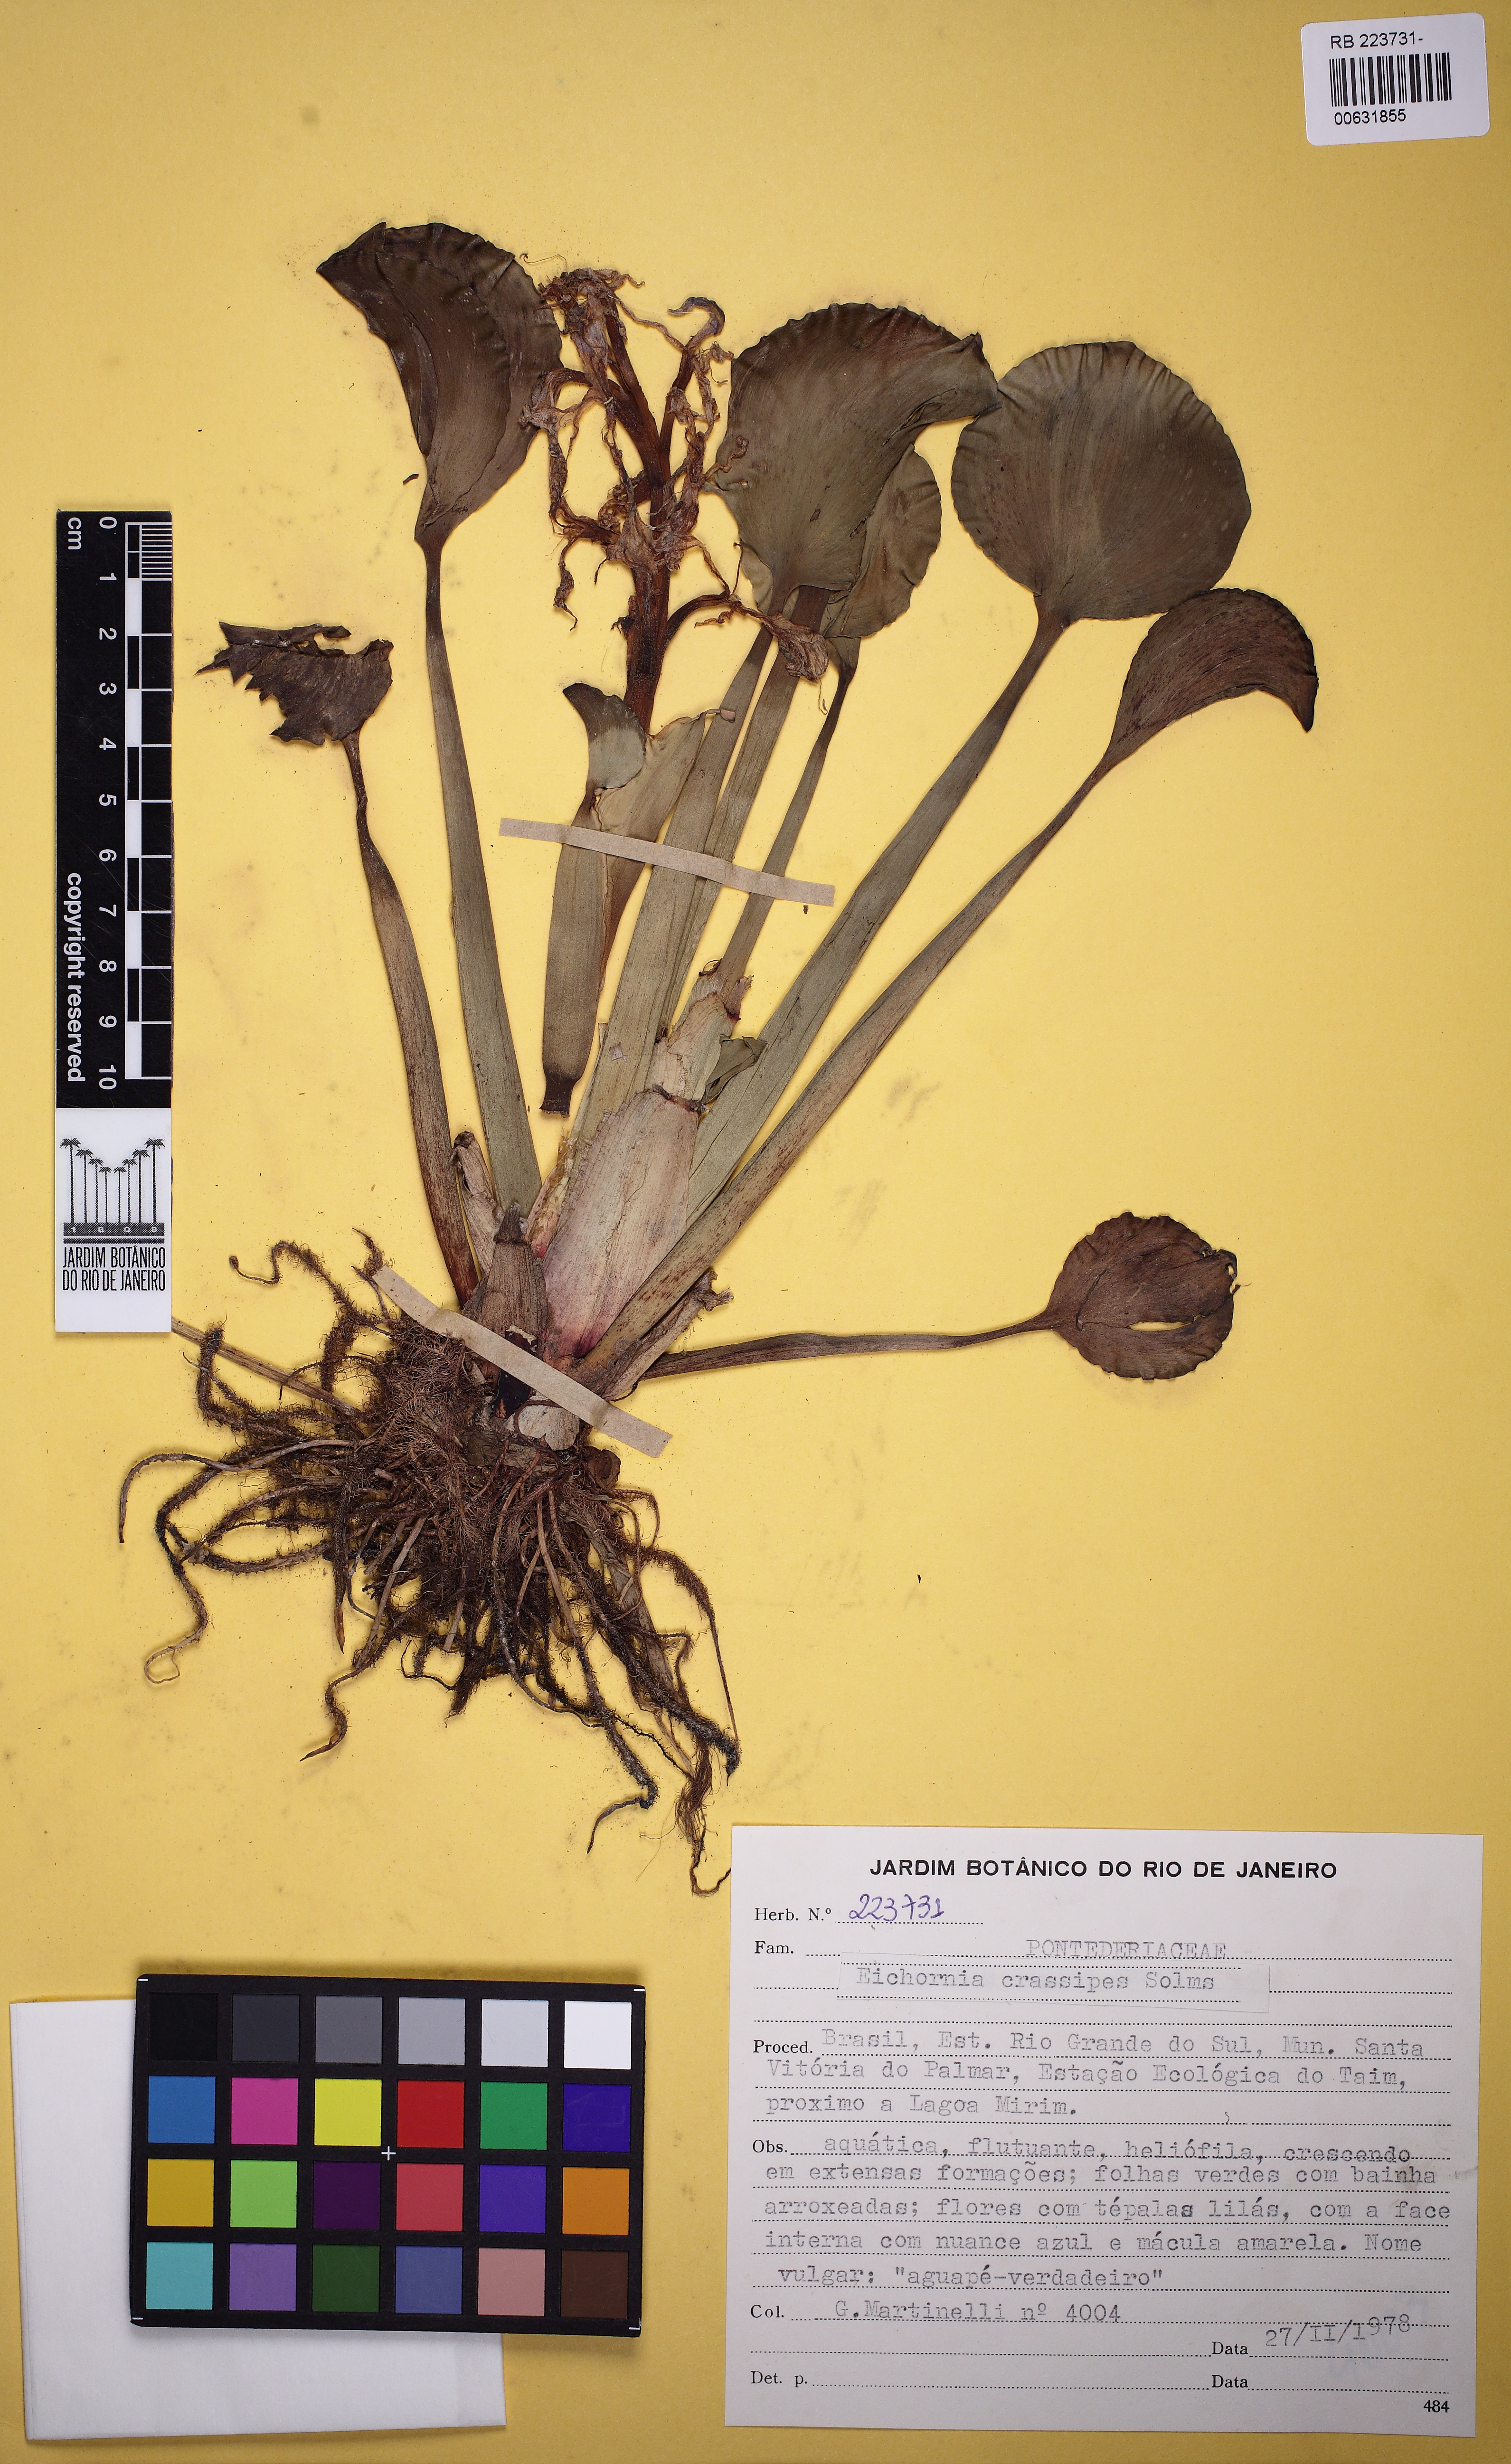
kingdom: Plantae
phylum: Tracheophyta
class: Liliopsida
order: Commelinales
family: Pontederiaceae
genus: Pontederia
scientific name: Pontederia crassipes
